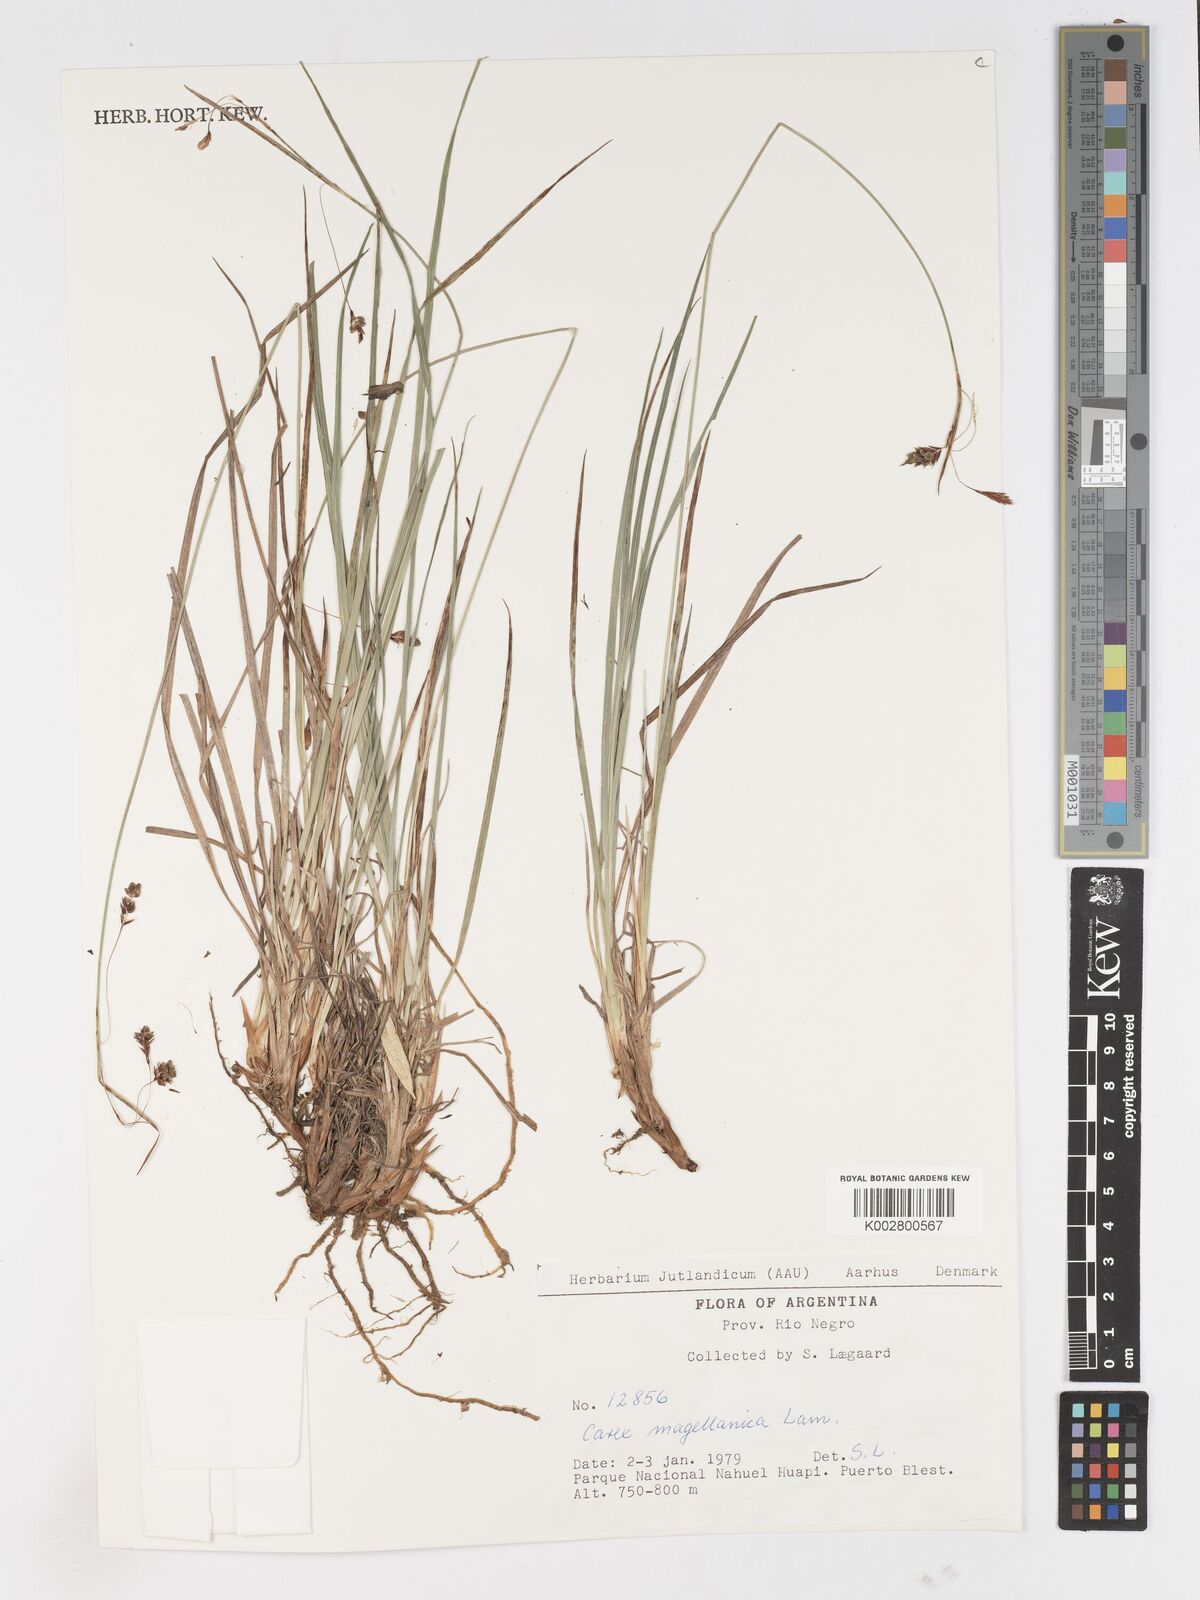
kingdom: Plantae
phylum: Tracheophyta
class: Liliopsida
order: Poales
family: Cyperaceae
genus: Carex
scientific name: Carex magellanica
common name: Bog sedge
